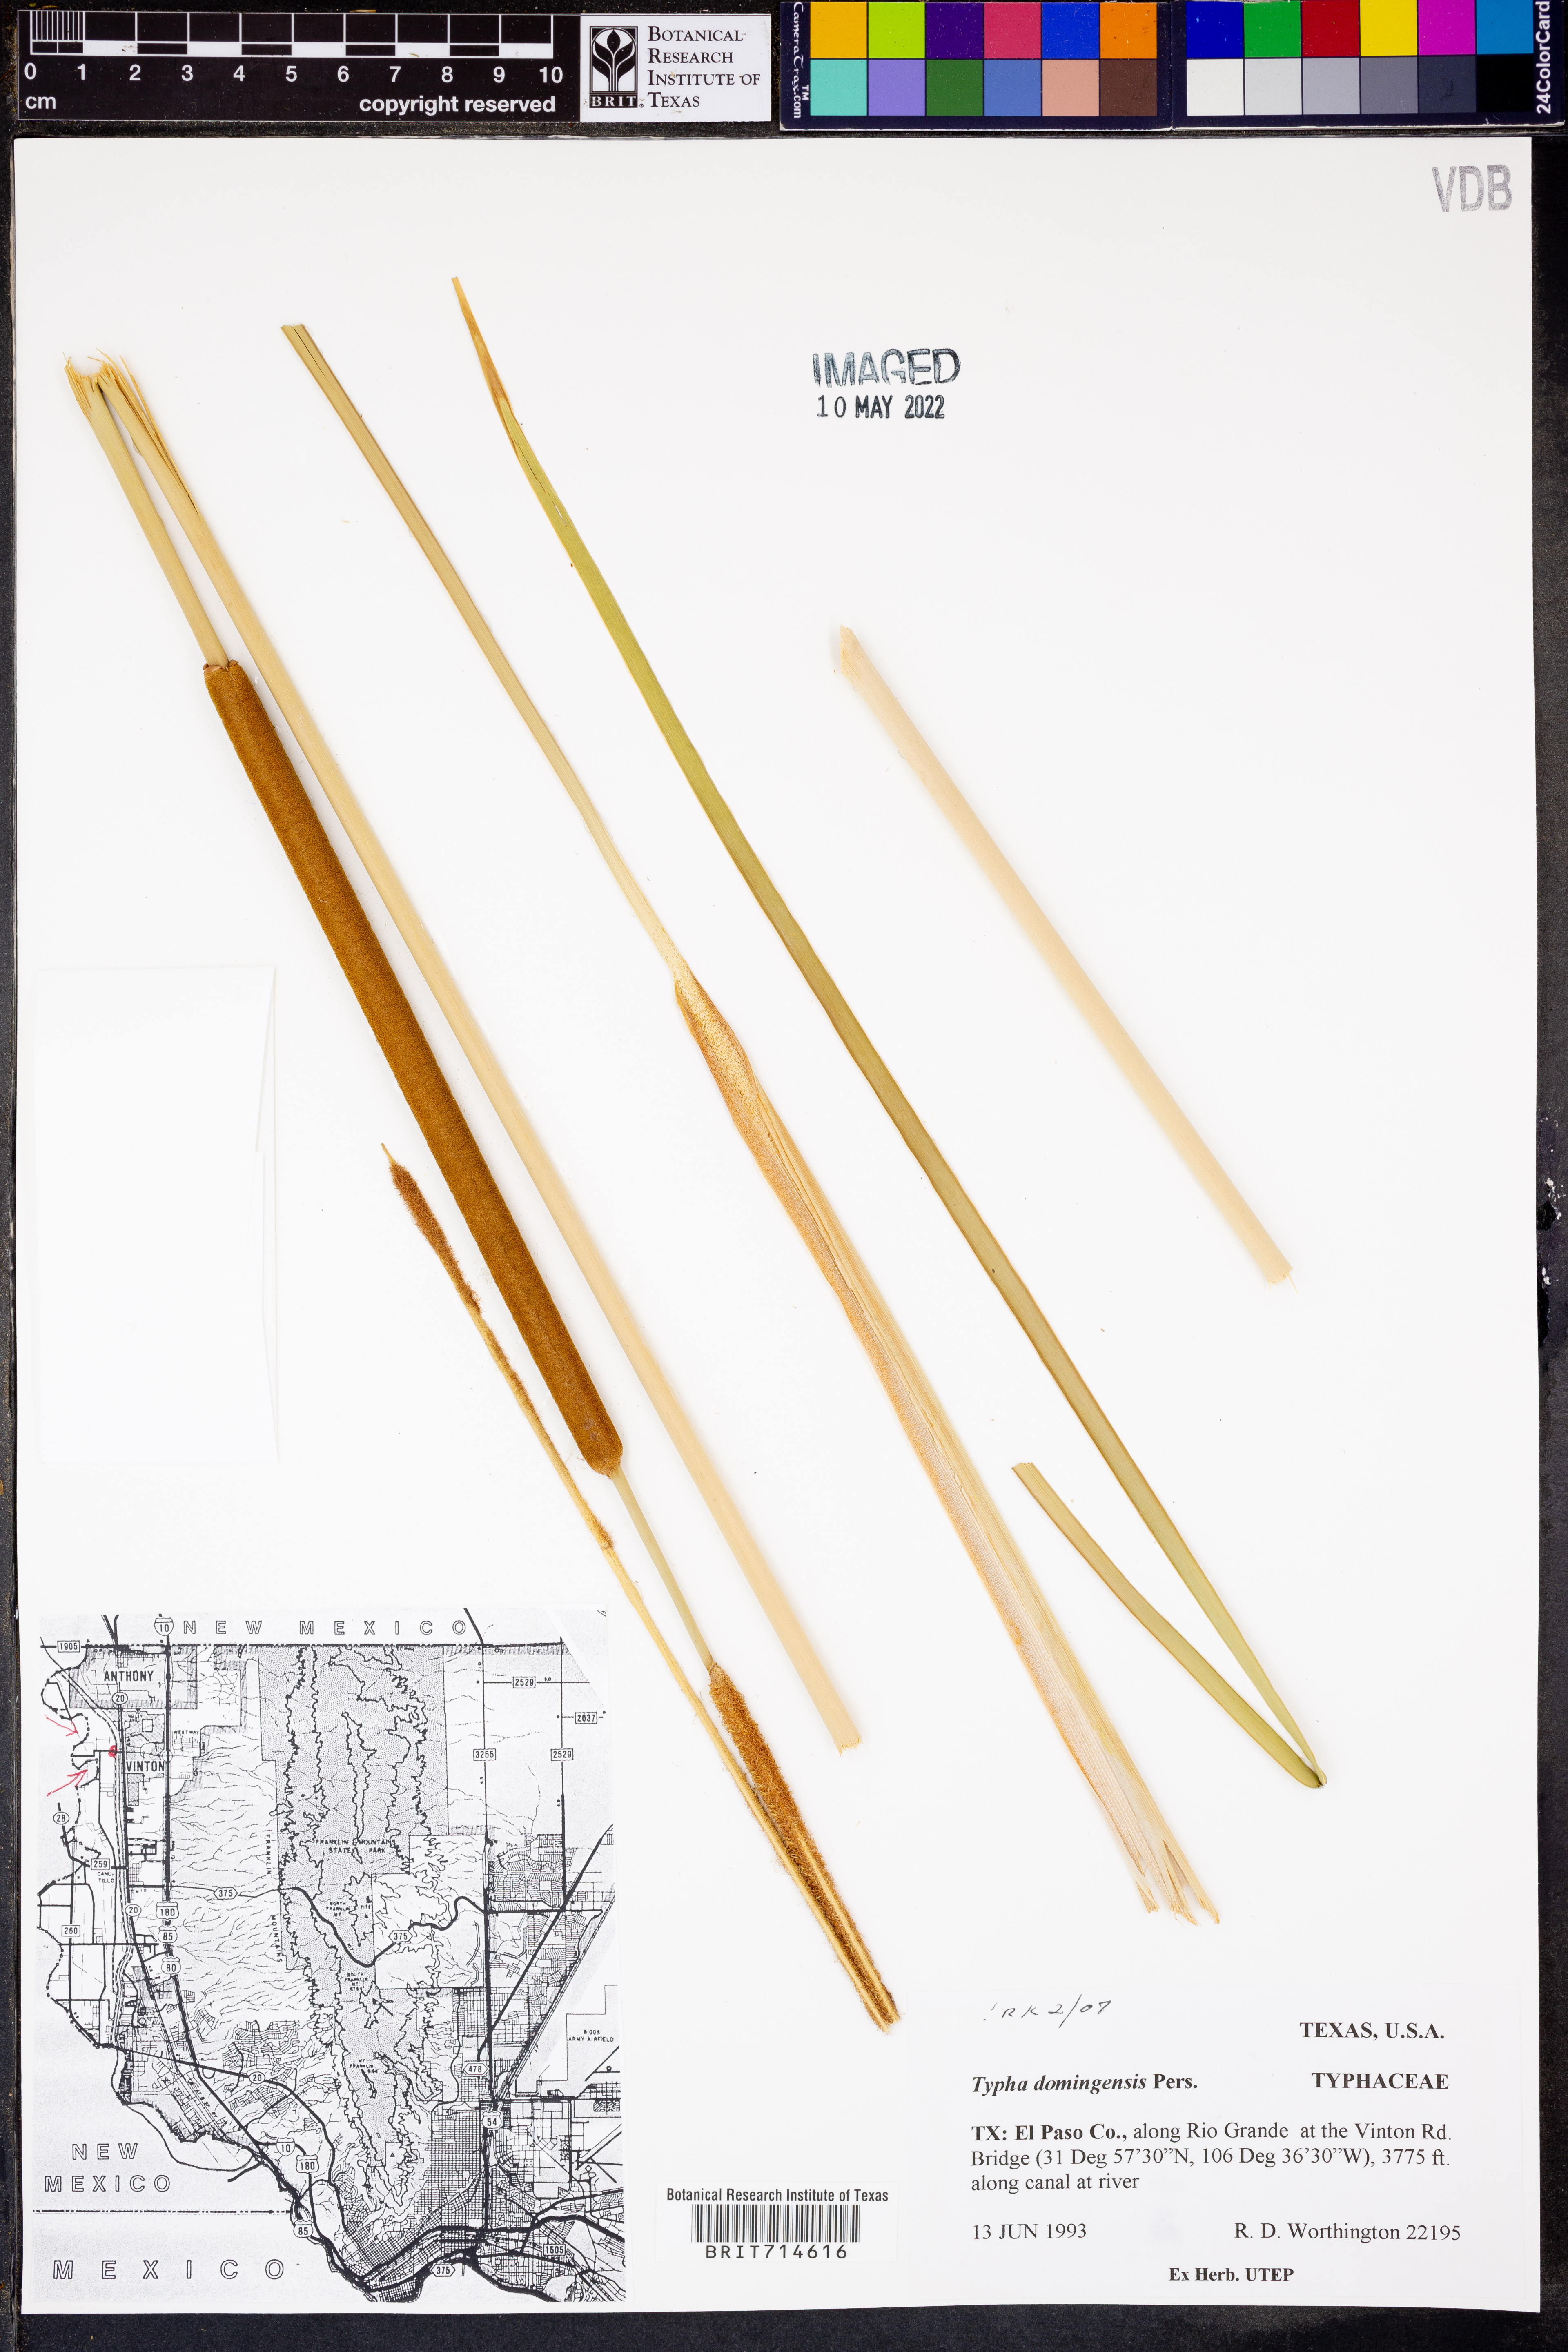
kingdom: Plantae
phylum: Tracheophyta
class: Liliopsida
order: Poales
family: Typhaceae
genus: Typha
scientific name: Typha domingensis
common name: Southern cattail
